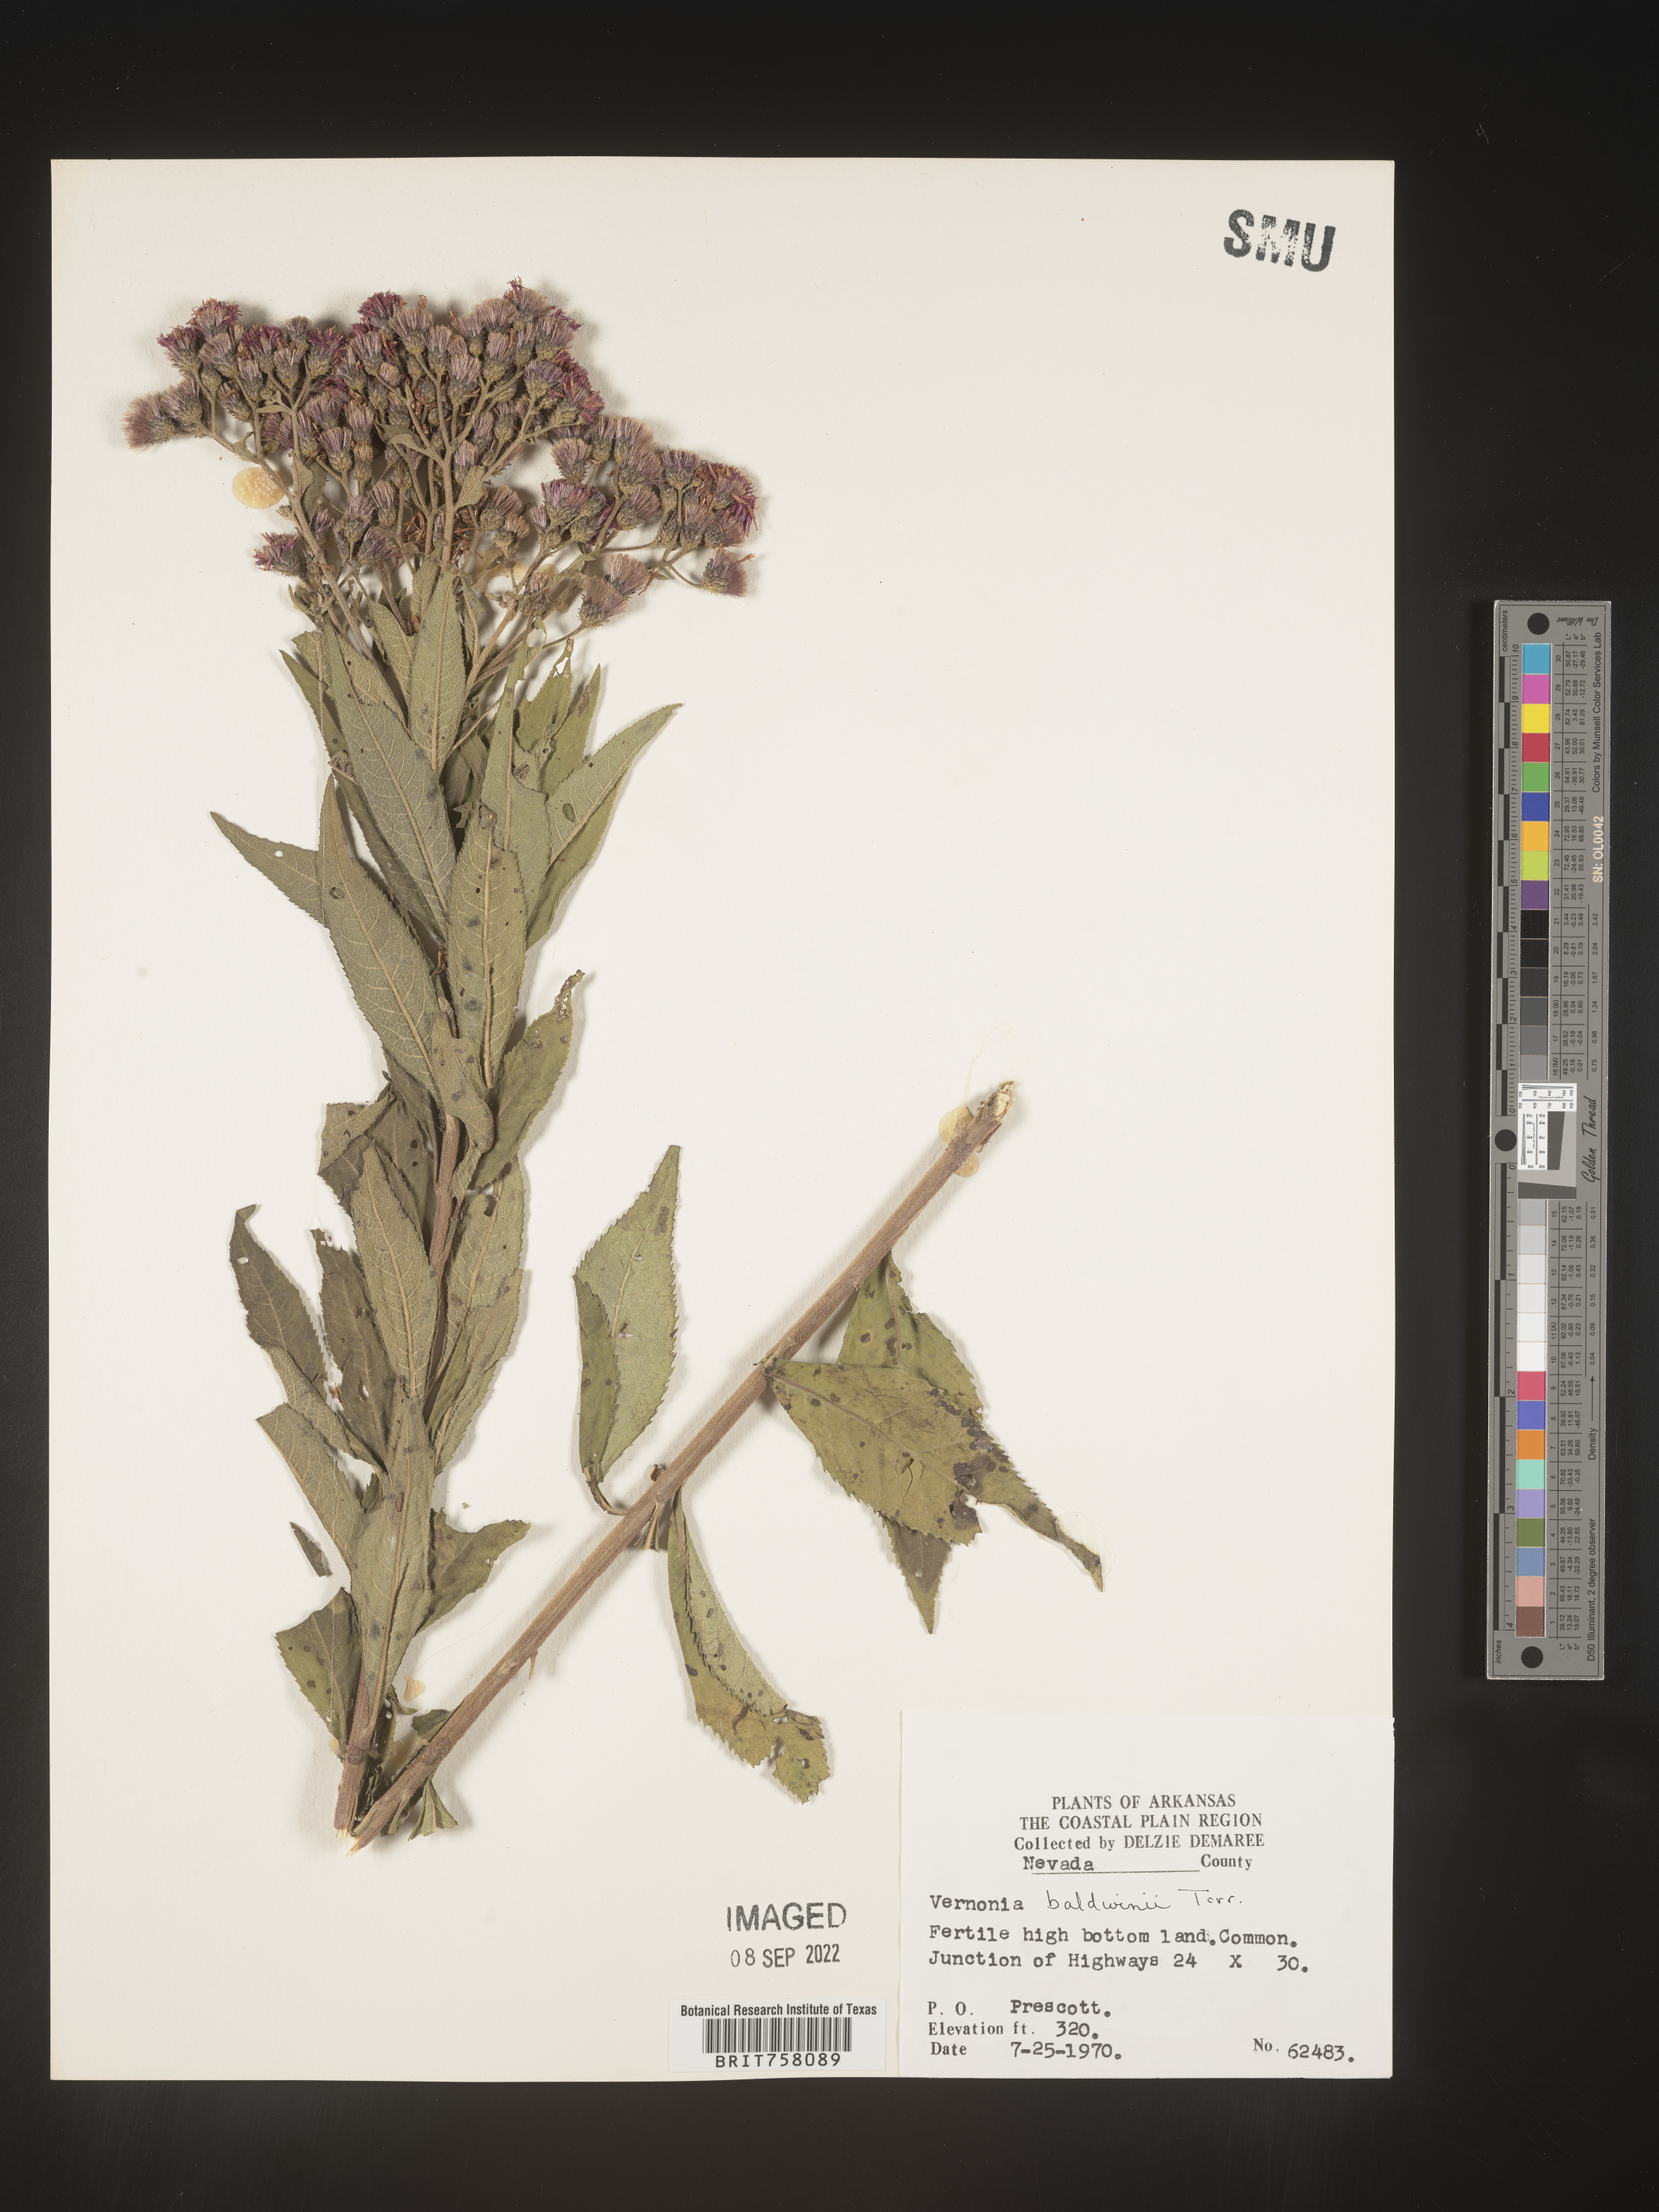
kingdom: Plantae
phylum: Tracheophyta
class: Magnoliopsida
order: Asterales
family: Asteraceae
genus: Vernonia
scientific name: Vernonia baldwinii
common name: Western ironweed
